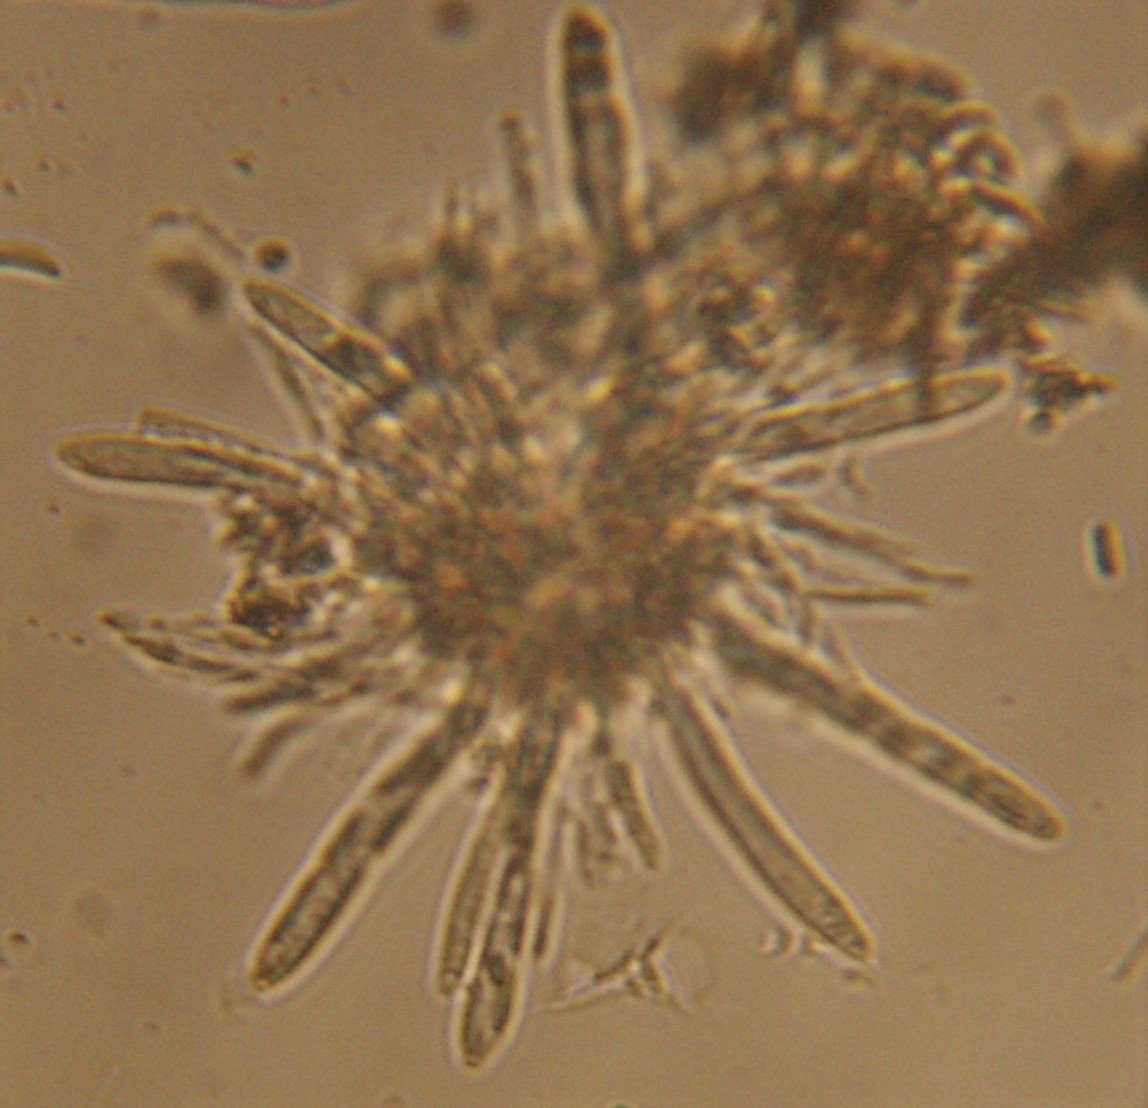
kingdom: Fungi
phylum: Ascomycota
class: Leotiomycetes
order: Helotiales
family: Mollisiaceae
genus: Mollisia
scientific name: Mollisia ligni
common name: ved-gråskive
